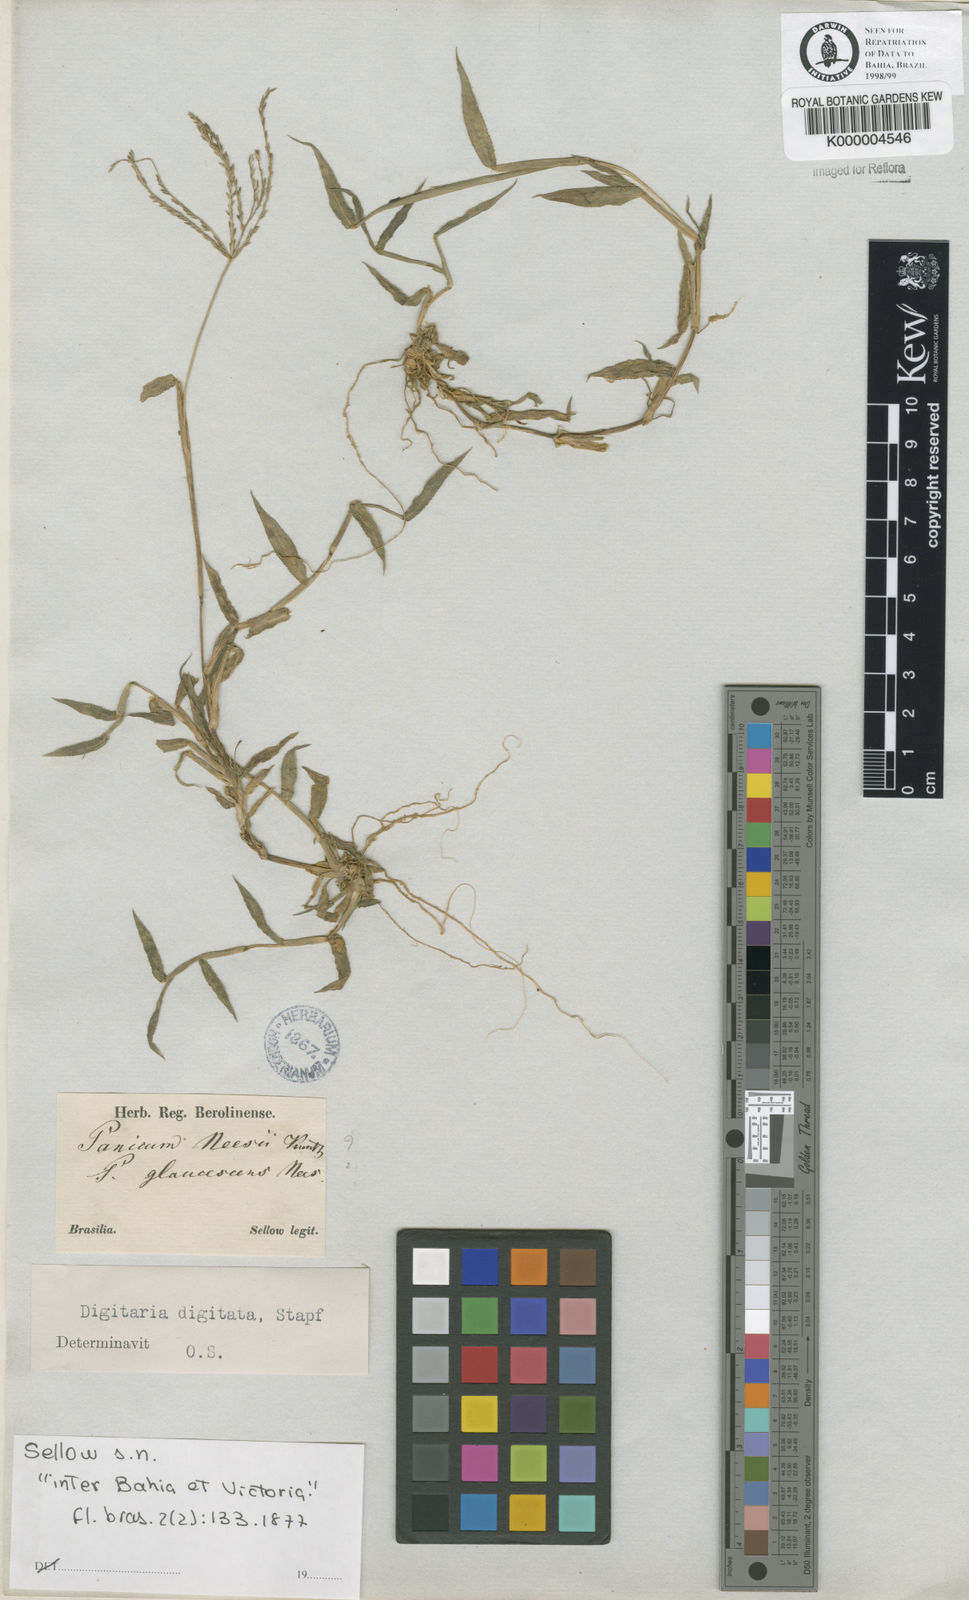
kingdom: Plantae
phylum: Tracheophyta
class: Liliopsida
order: Poales
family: Poaceae
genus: Digitaria
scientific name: Digitaria horizontalis
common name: Jamaican crabgrass
